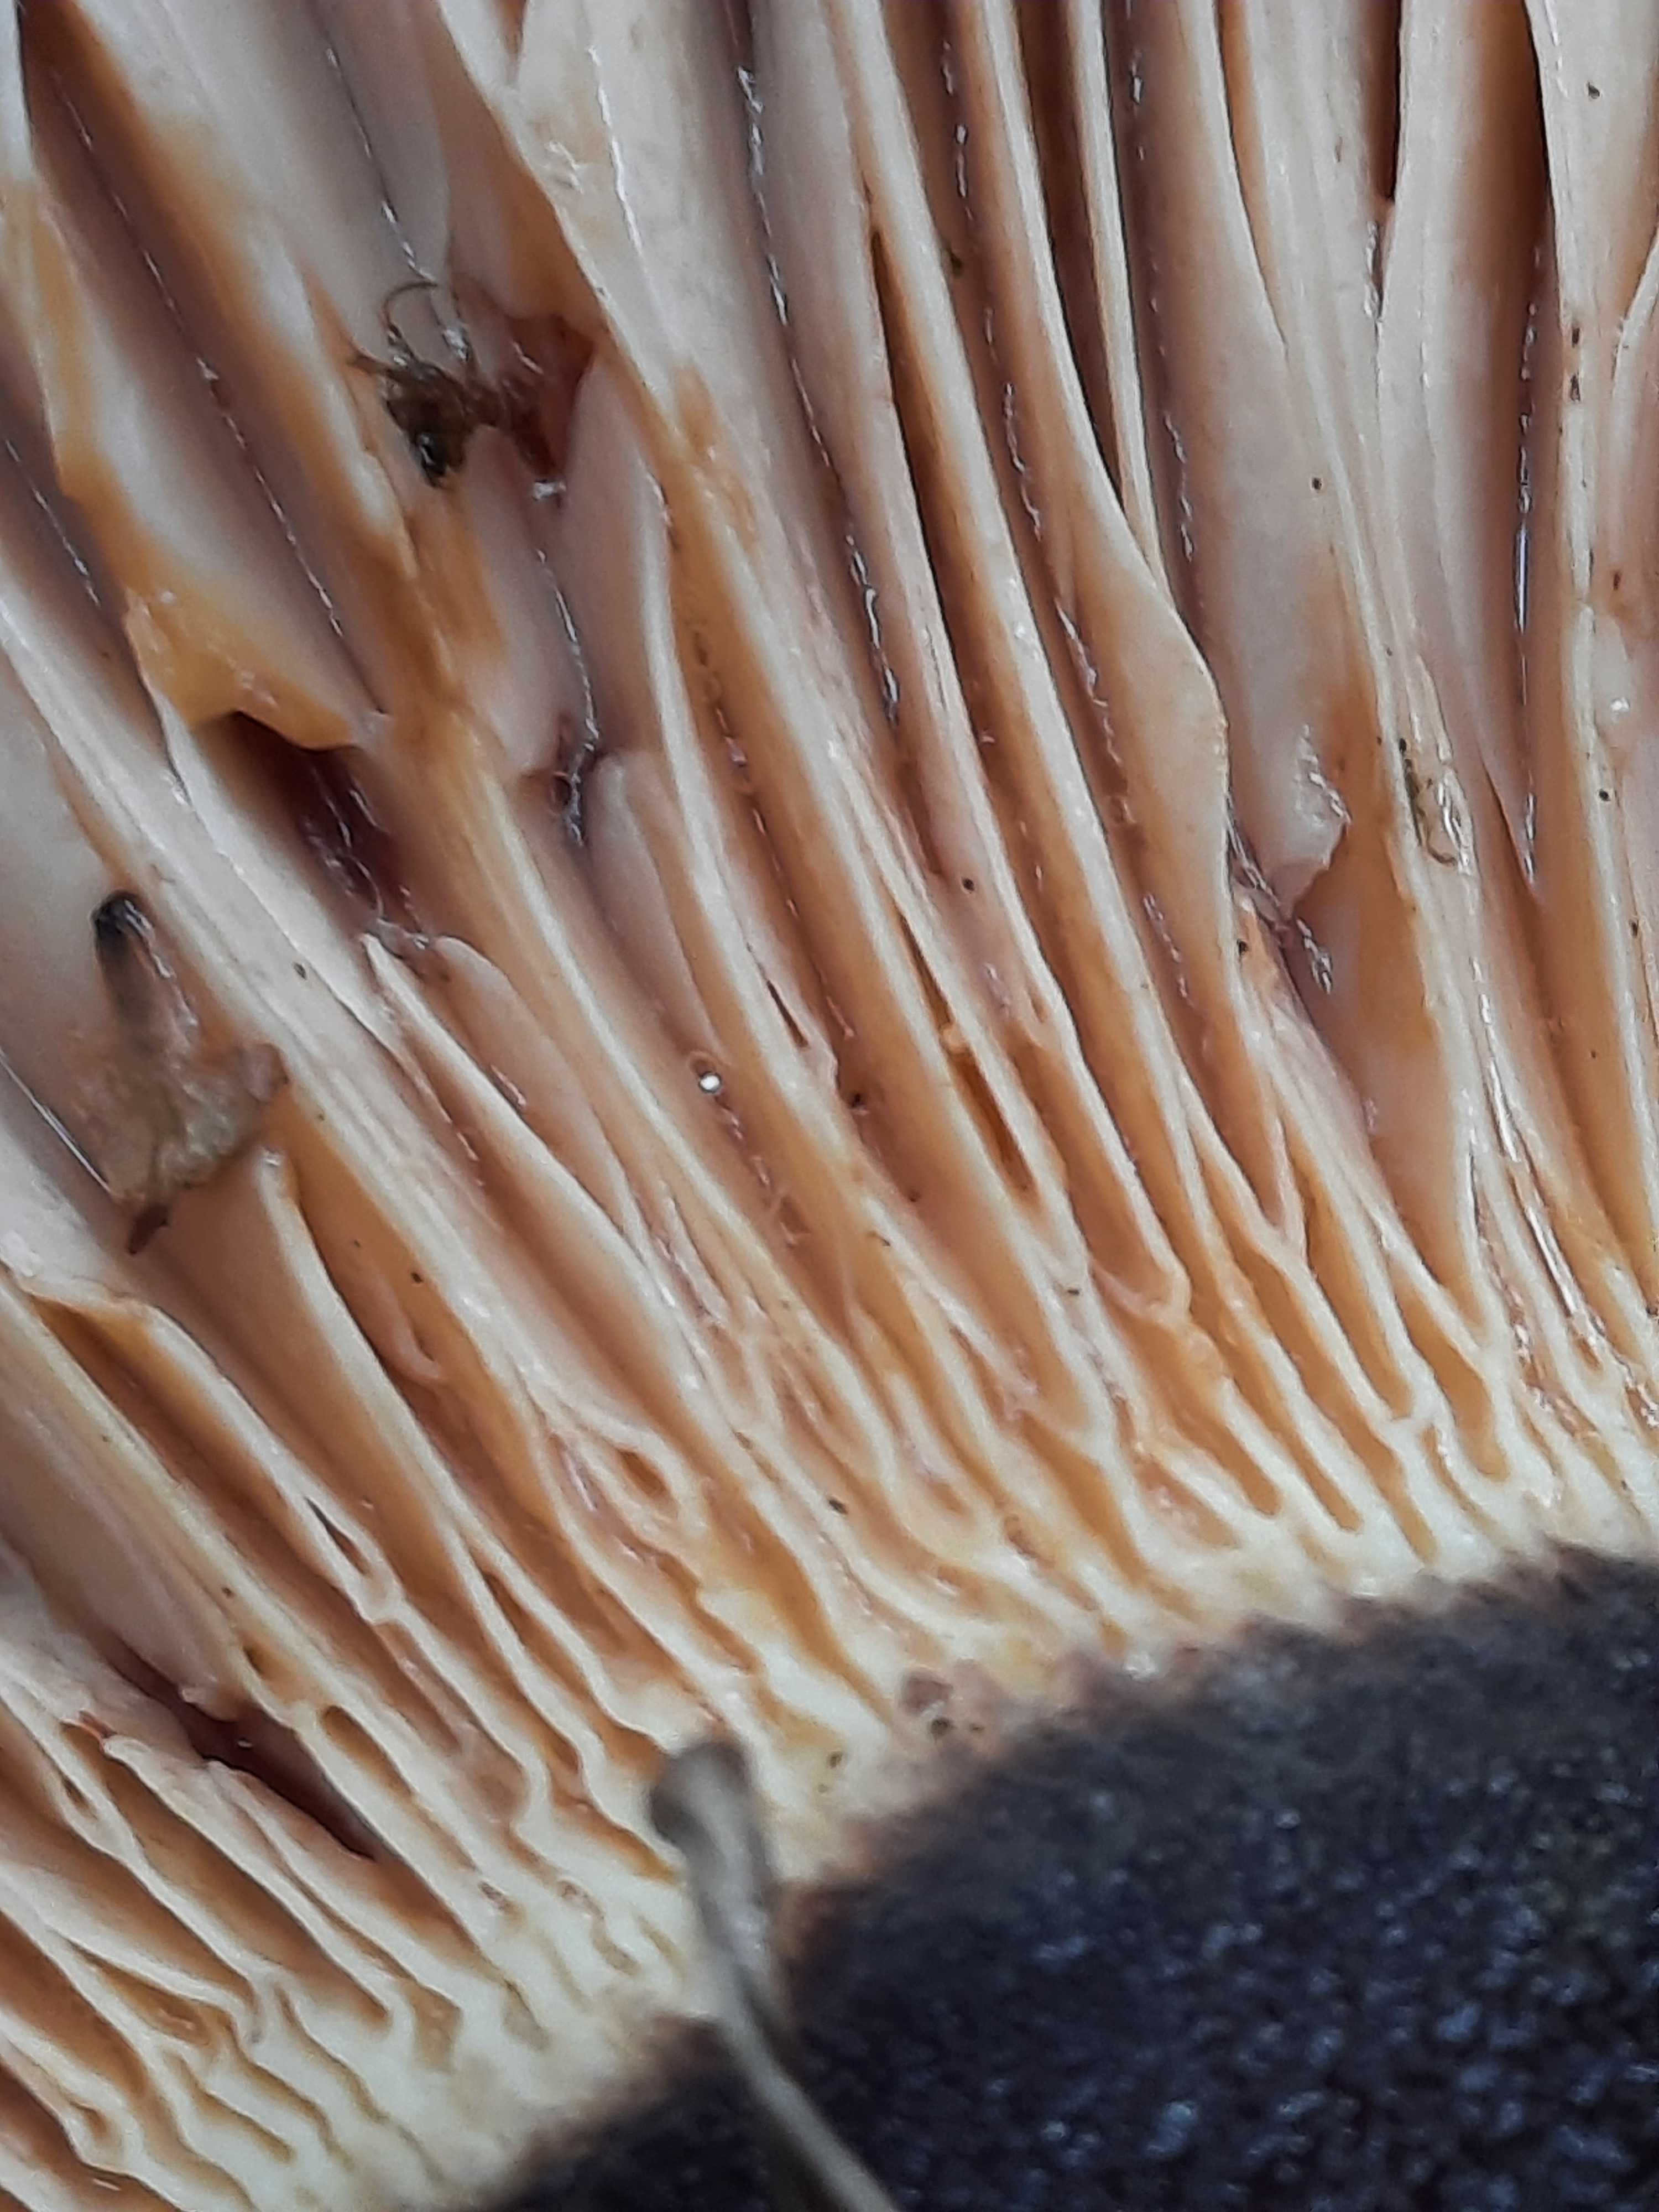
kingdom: Fungi
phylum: Basidiomycota
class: Agaricomycetes
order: Boletales
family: Tapinellaceae
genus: Tapinella
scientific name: Tapinella atrotomentosa
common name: sortfiltet viftesvamp
